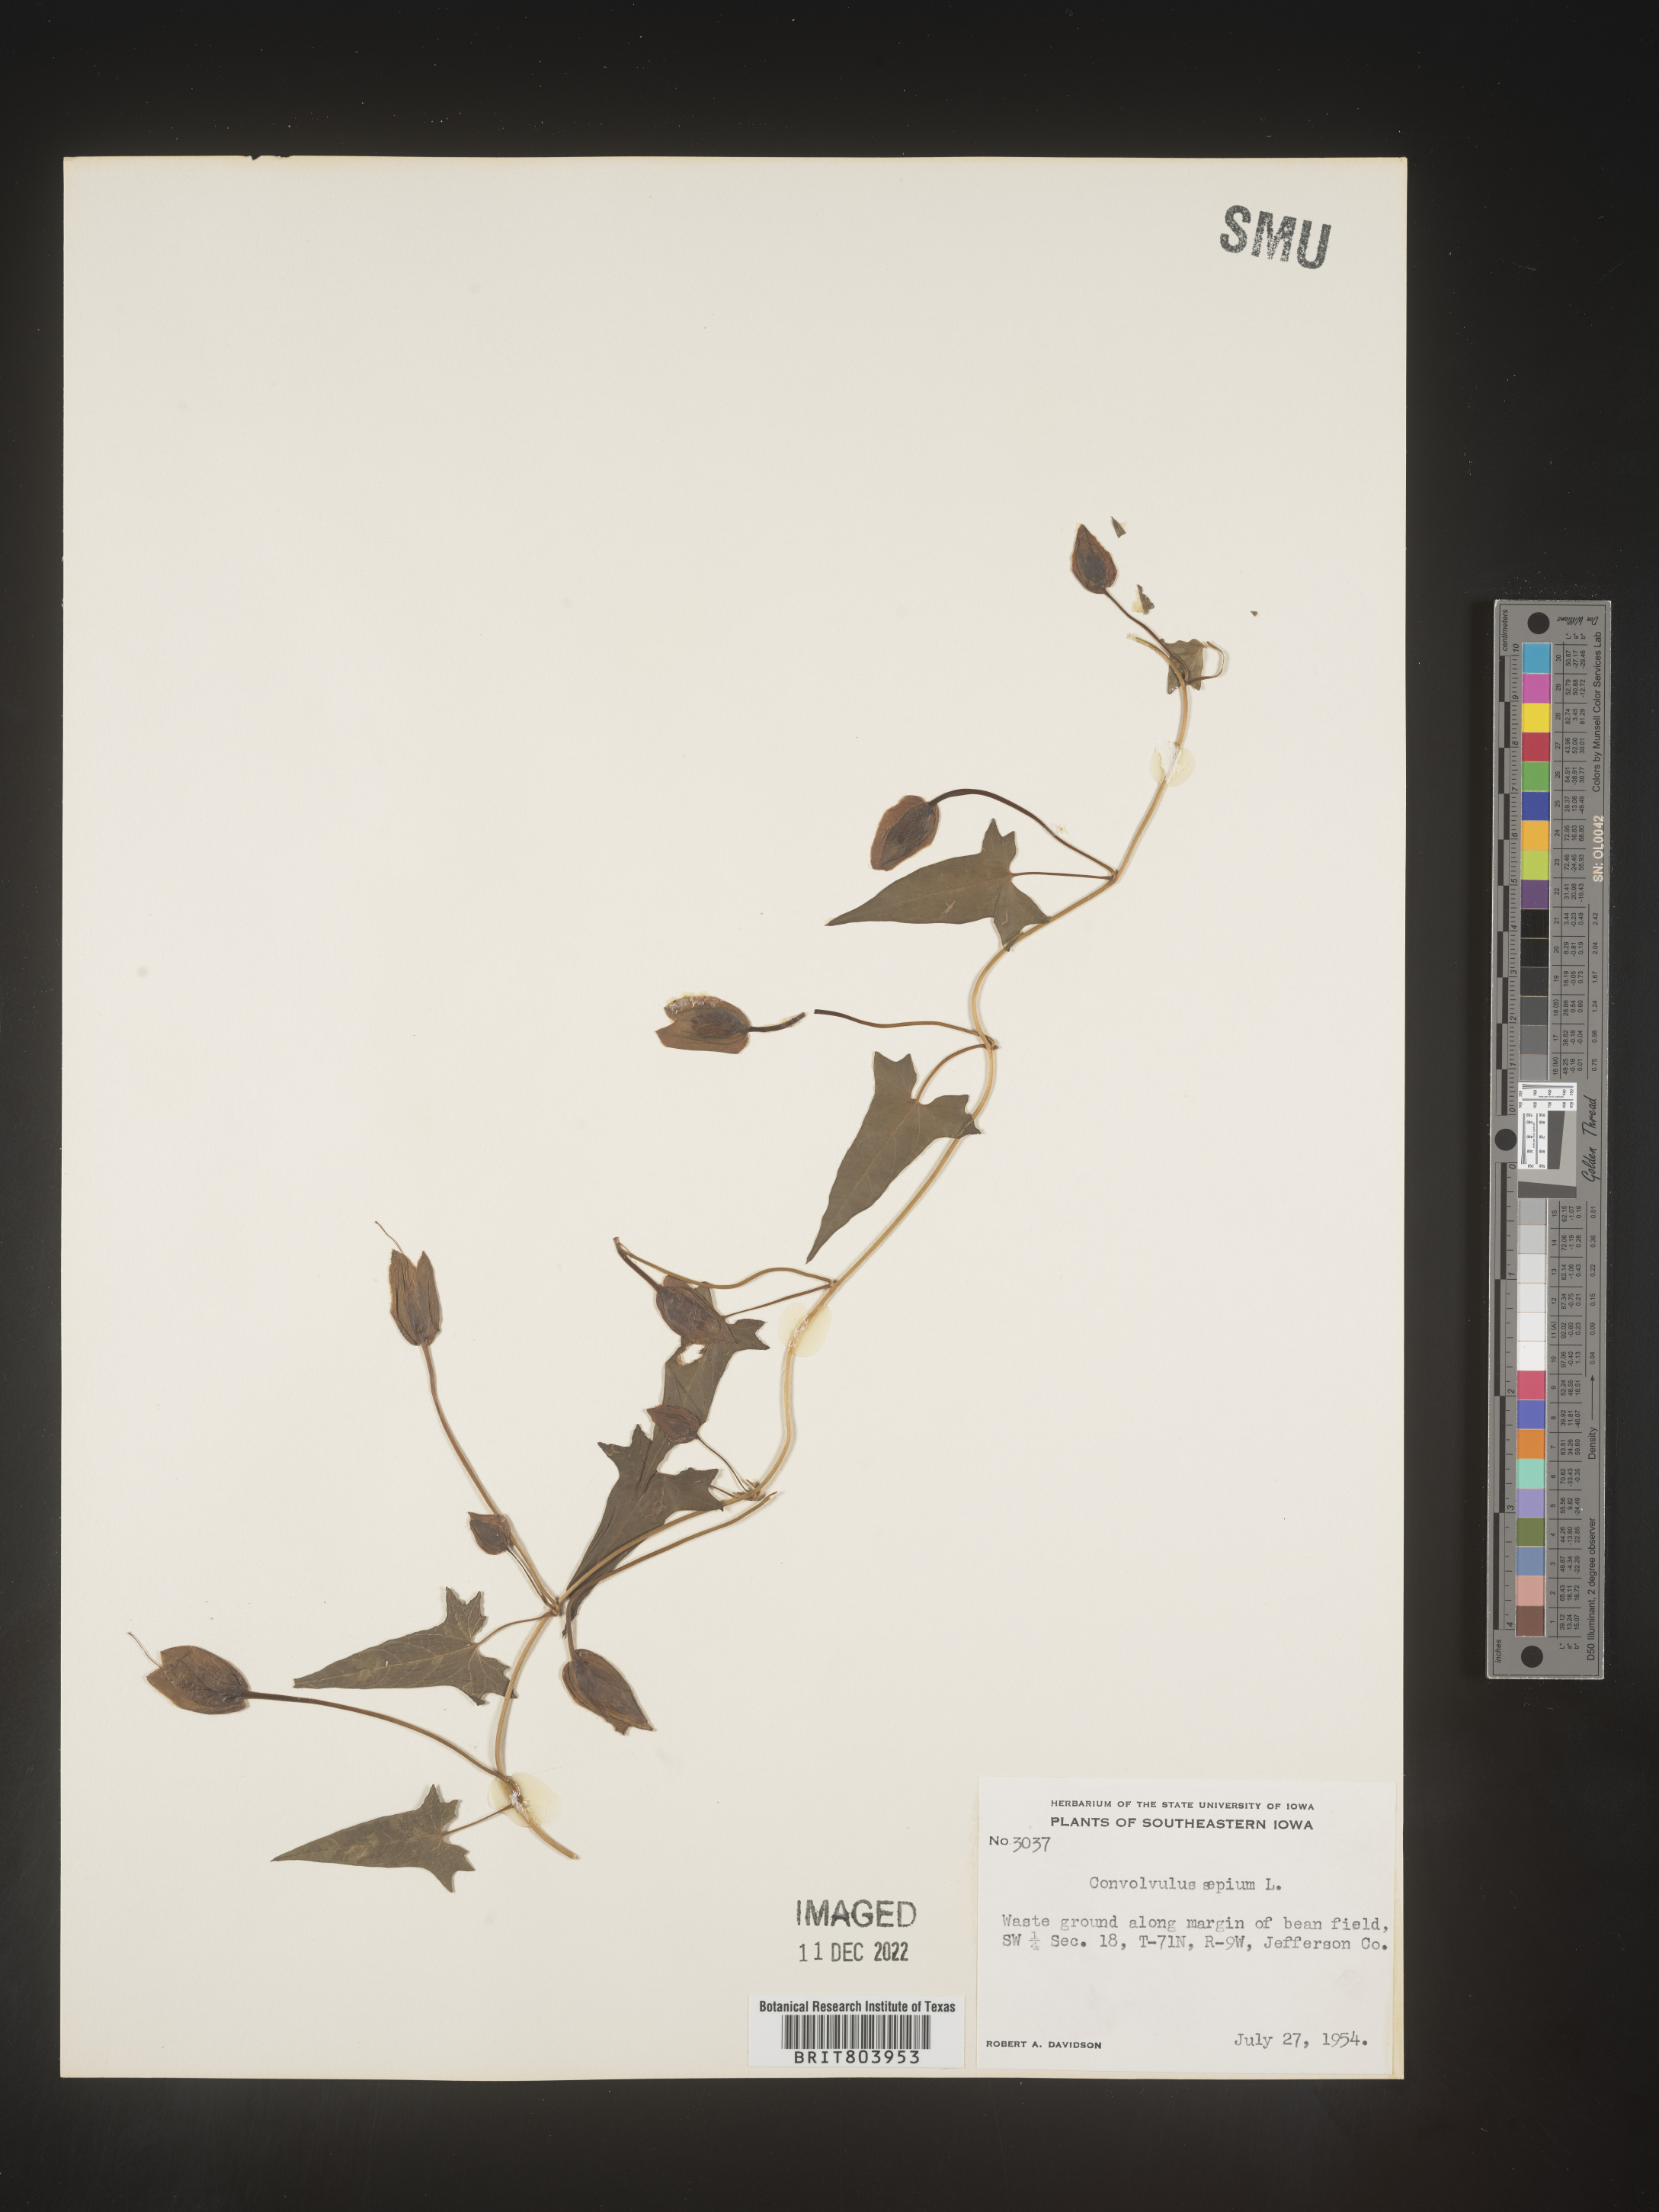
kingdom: Plantae
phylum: Tracheophyta
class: Magnoliopsida
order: Solanales
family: Convolvulaceae
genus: Calystegia
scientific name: Calystegia sepium
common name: Hedge bindweed
